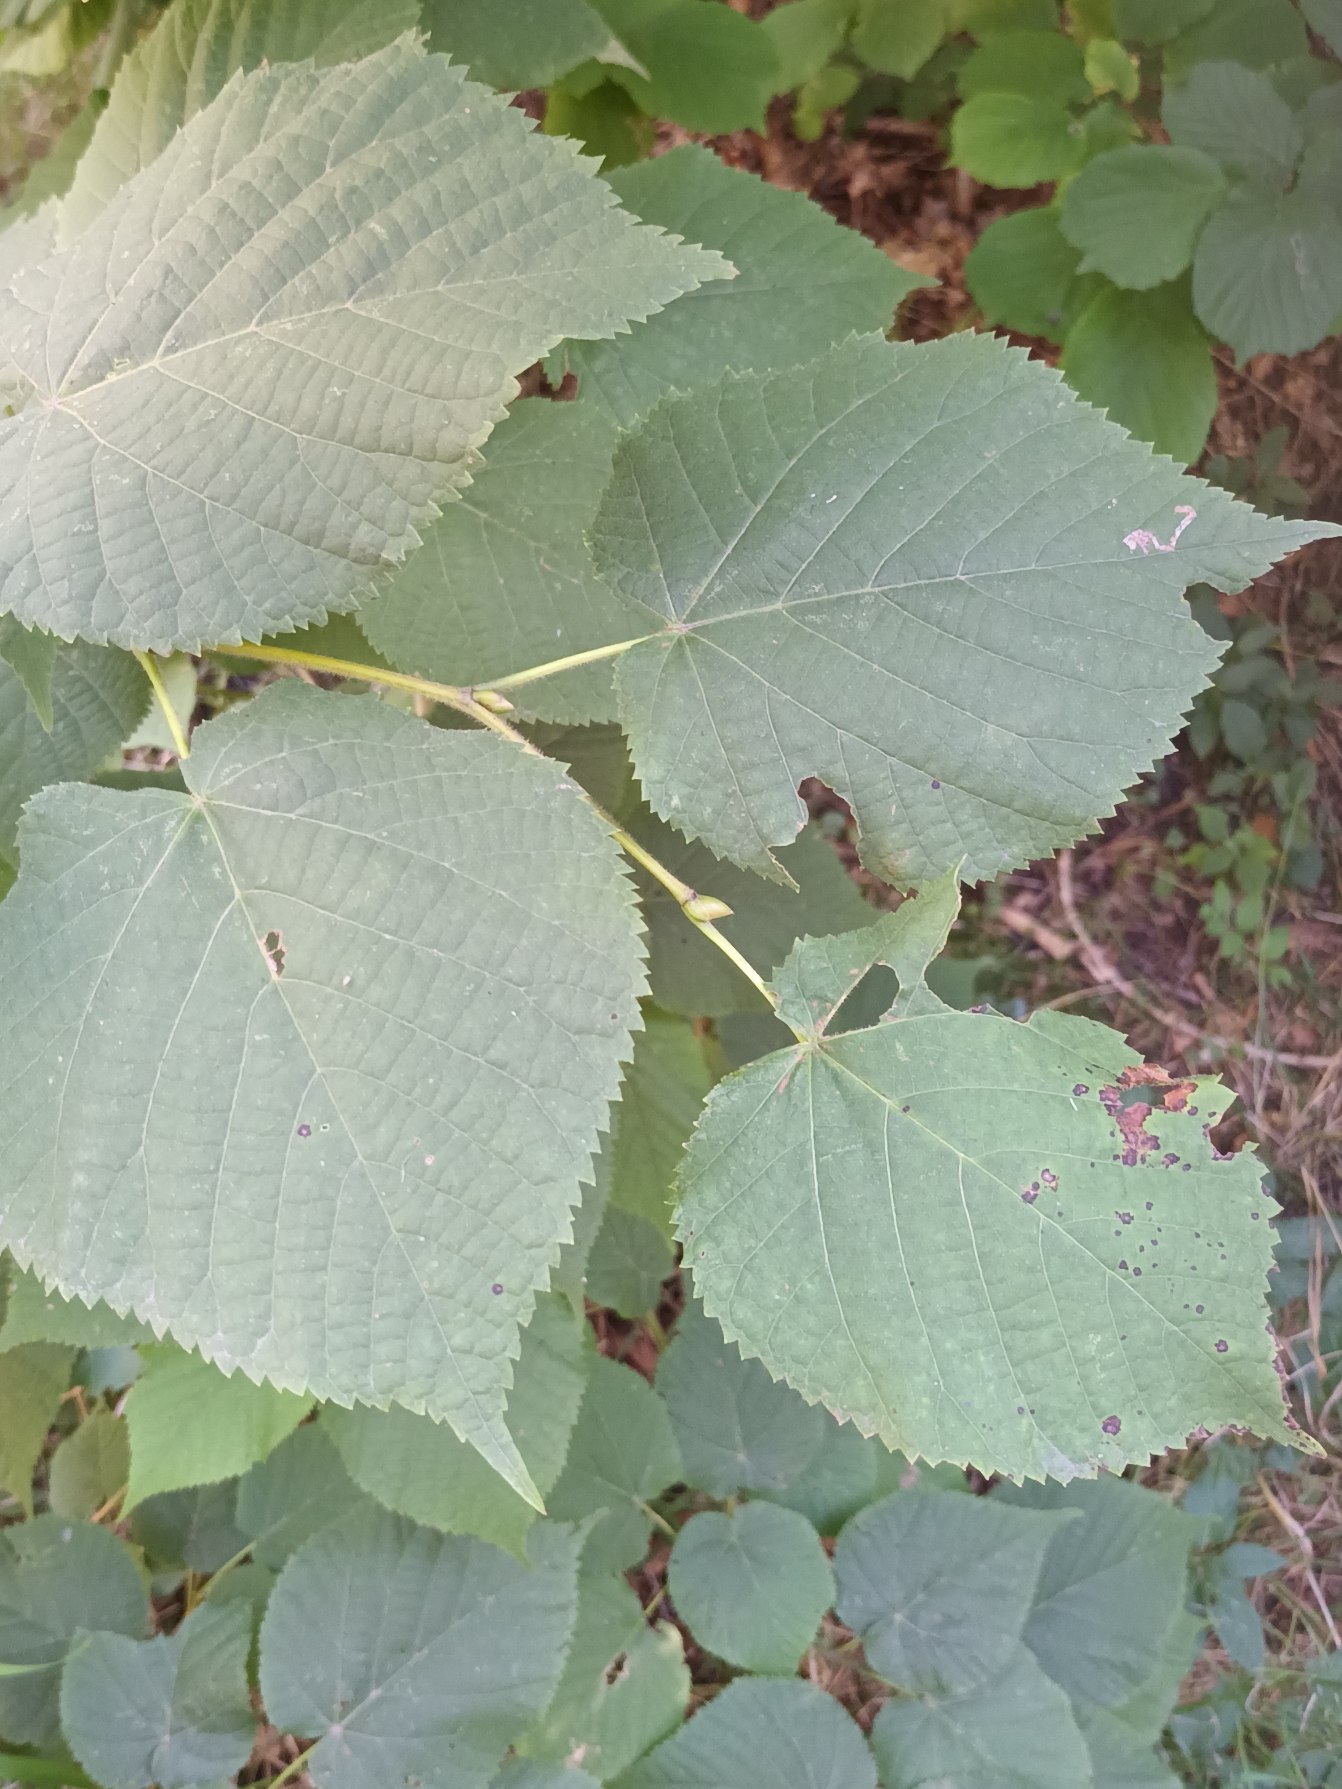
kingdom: Plantae
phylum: Tracheophyta
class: Magnoliopsida
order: Malvales
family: Malvaceae
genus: Tilia
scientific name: Tilia platyphyllos
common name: Storbladet lind
